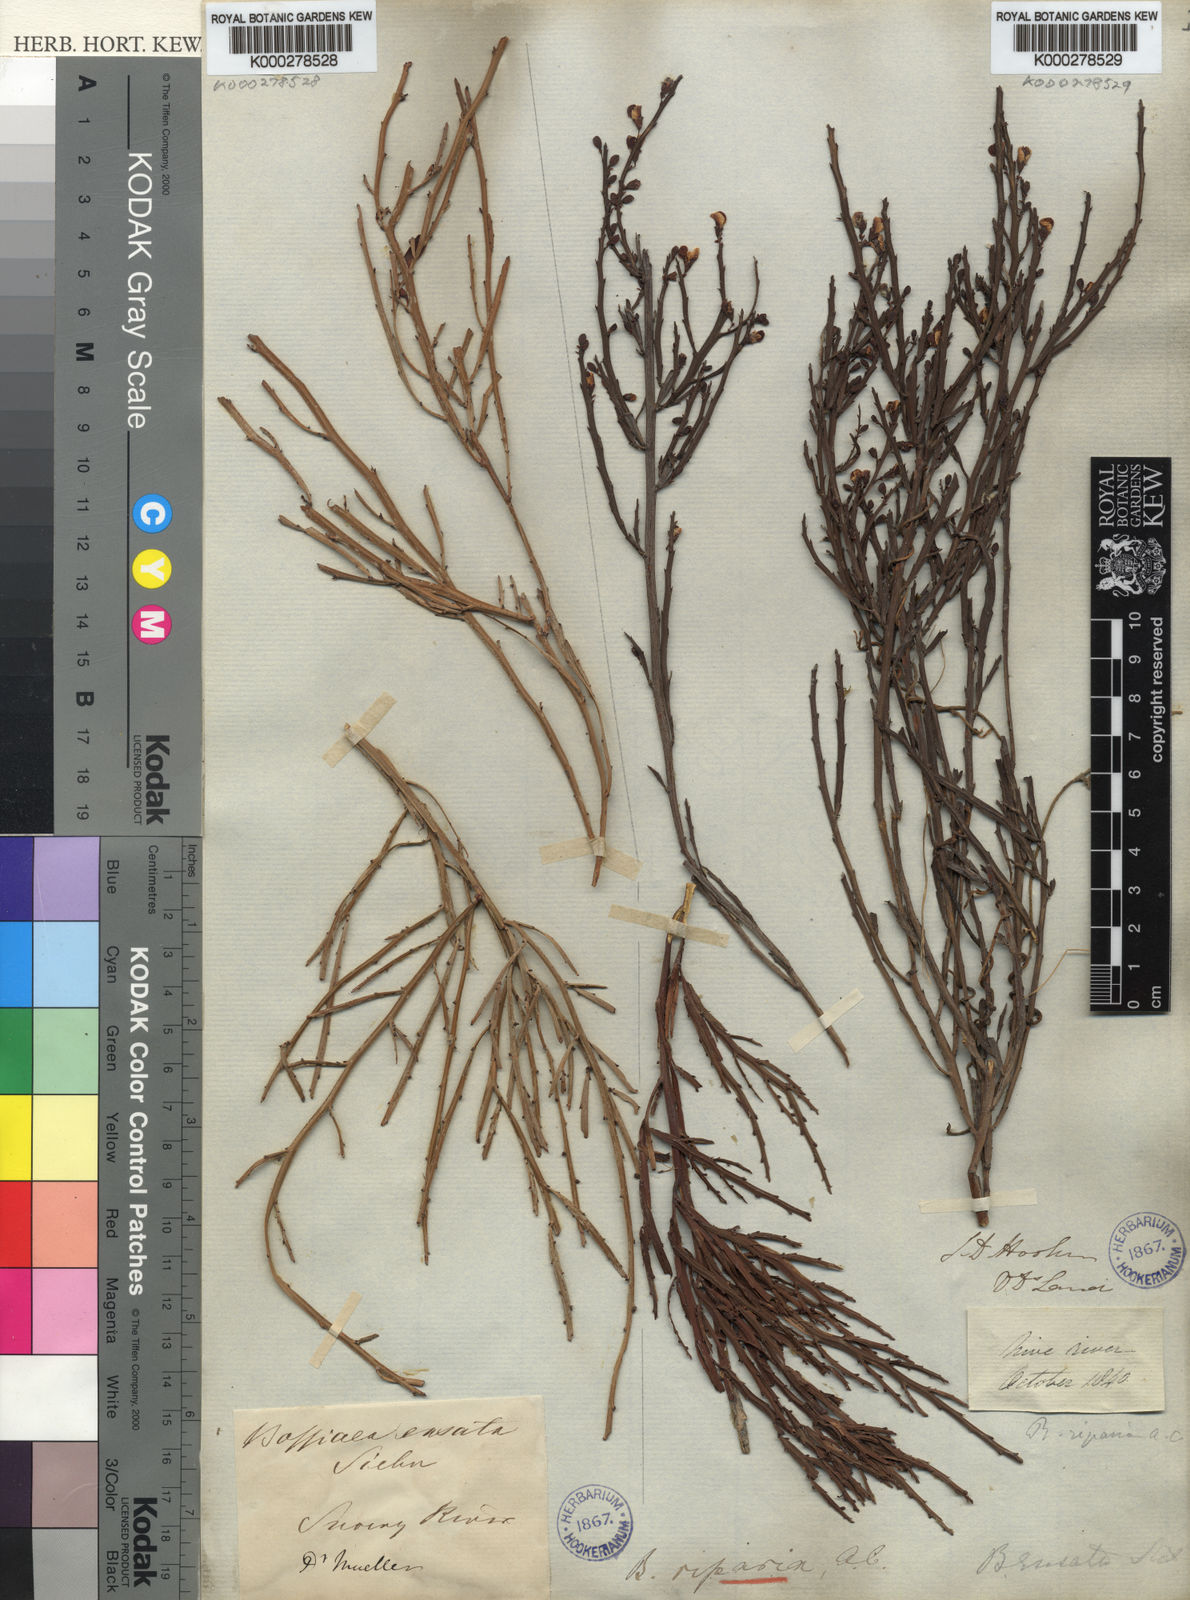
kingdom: Plantae
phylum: Tracheophyta
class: Magnoliopsida
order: Fabales
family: Fabaceae
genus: Bossiaea
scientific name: Bossiaea riparia
